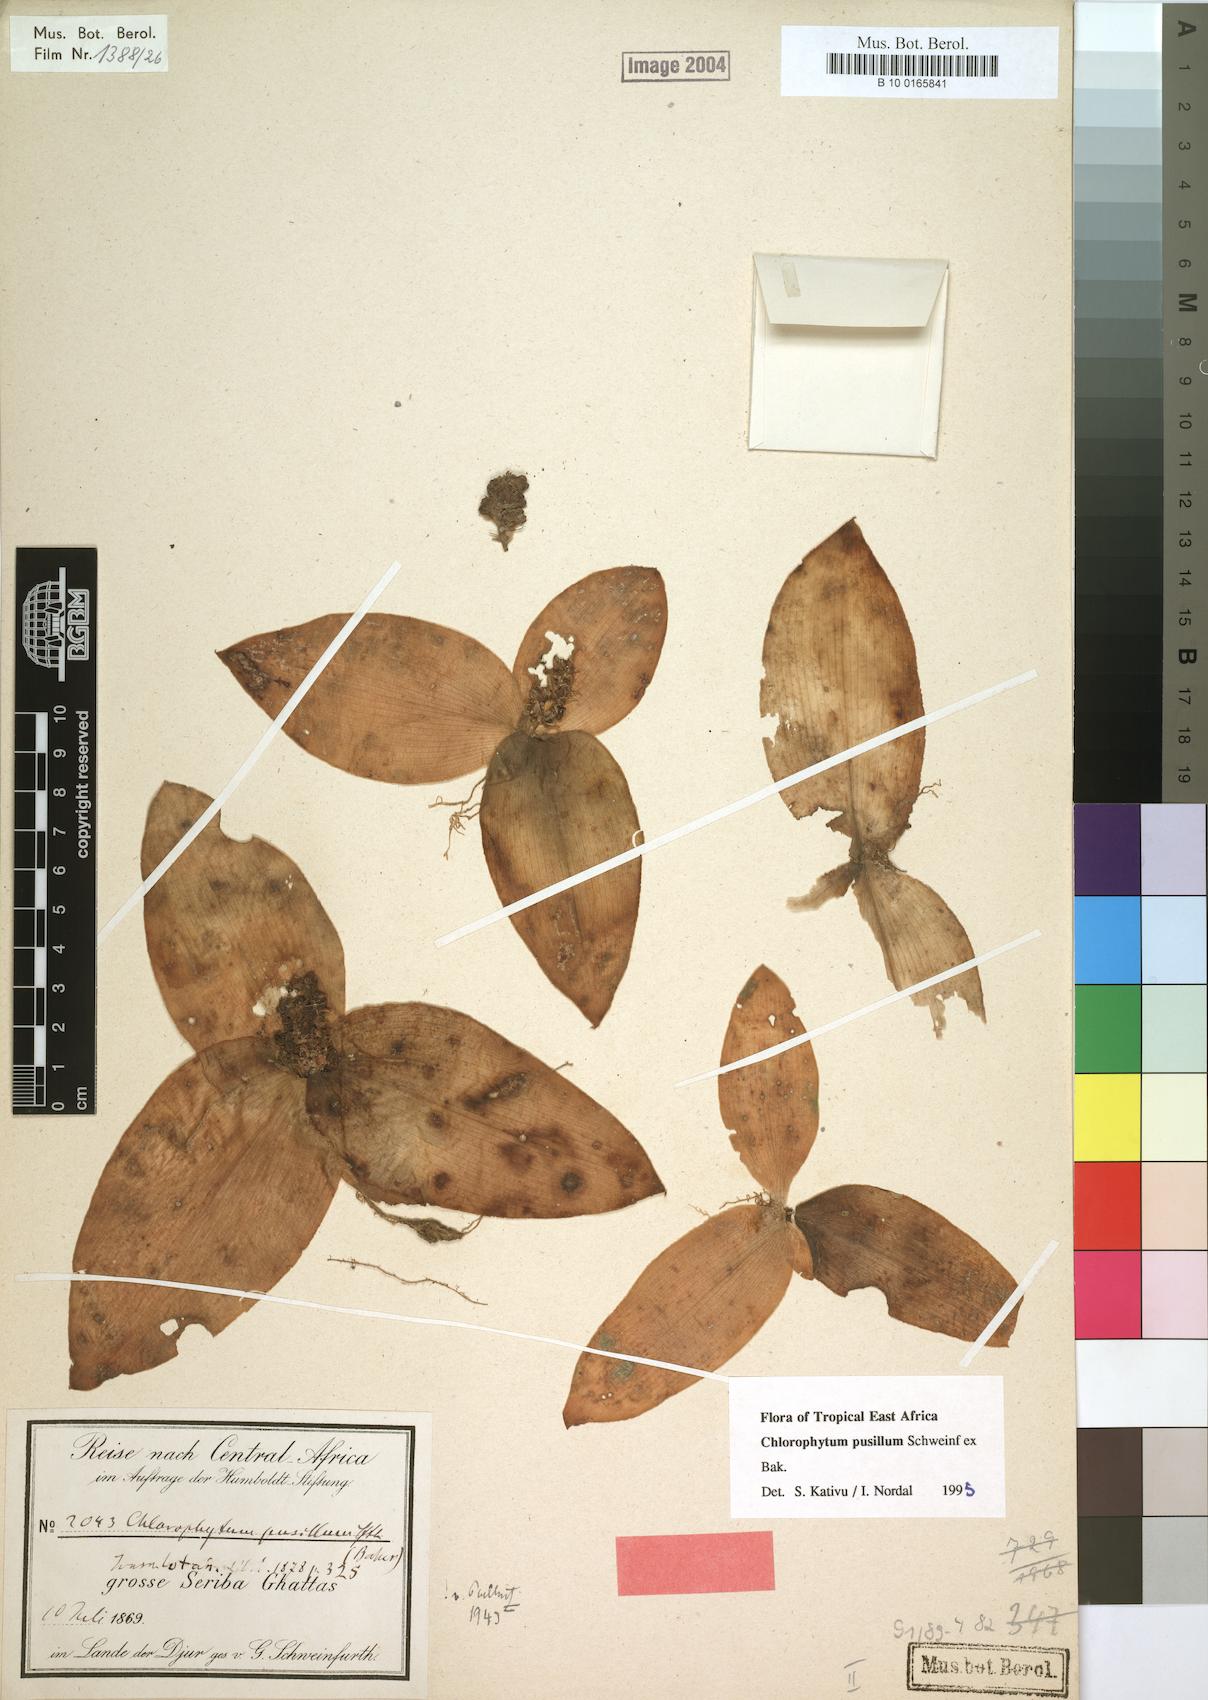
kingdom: Plantae
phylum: Tracheophyta
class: Liliopsida
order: Asparagales
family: Asparagaceae
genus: Chlorophytum
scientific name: Chlorophytum pusillum
